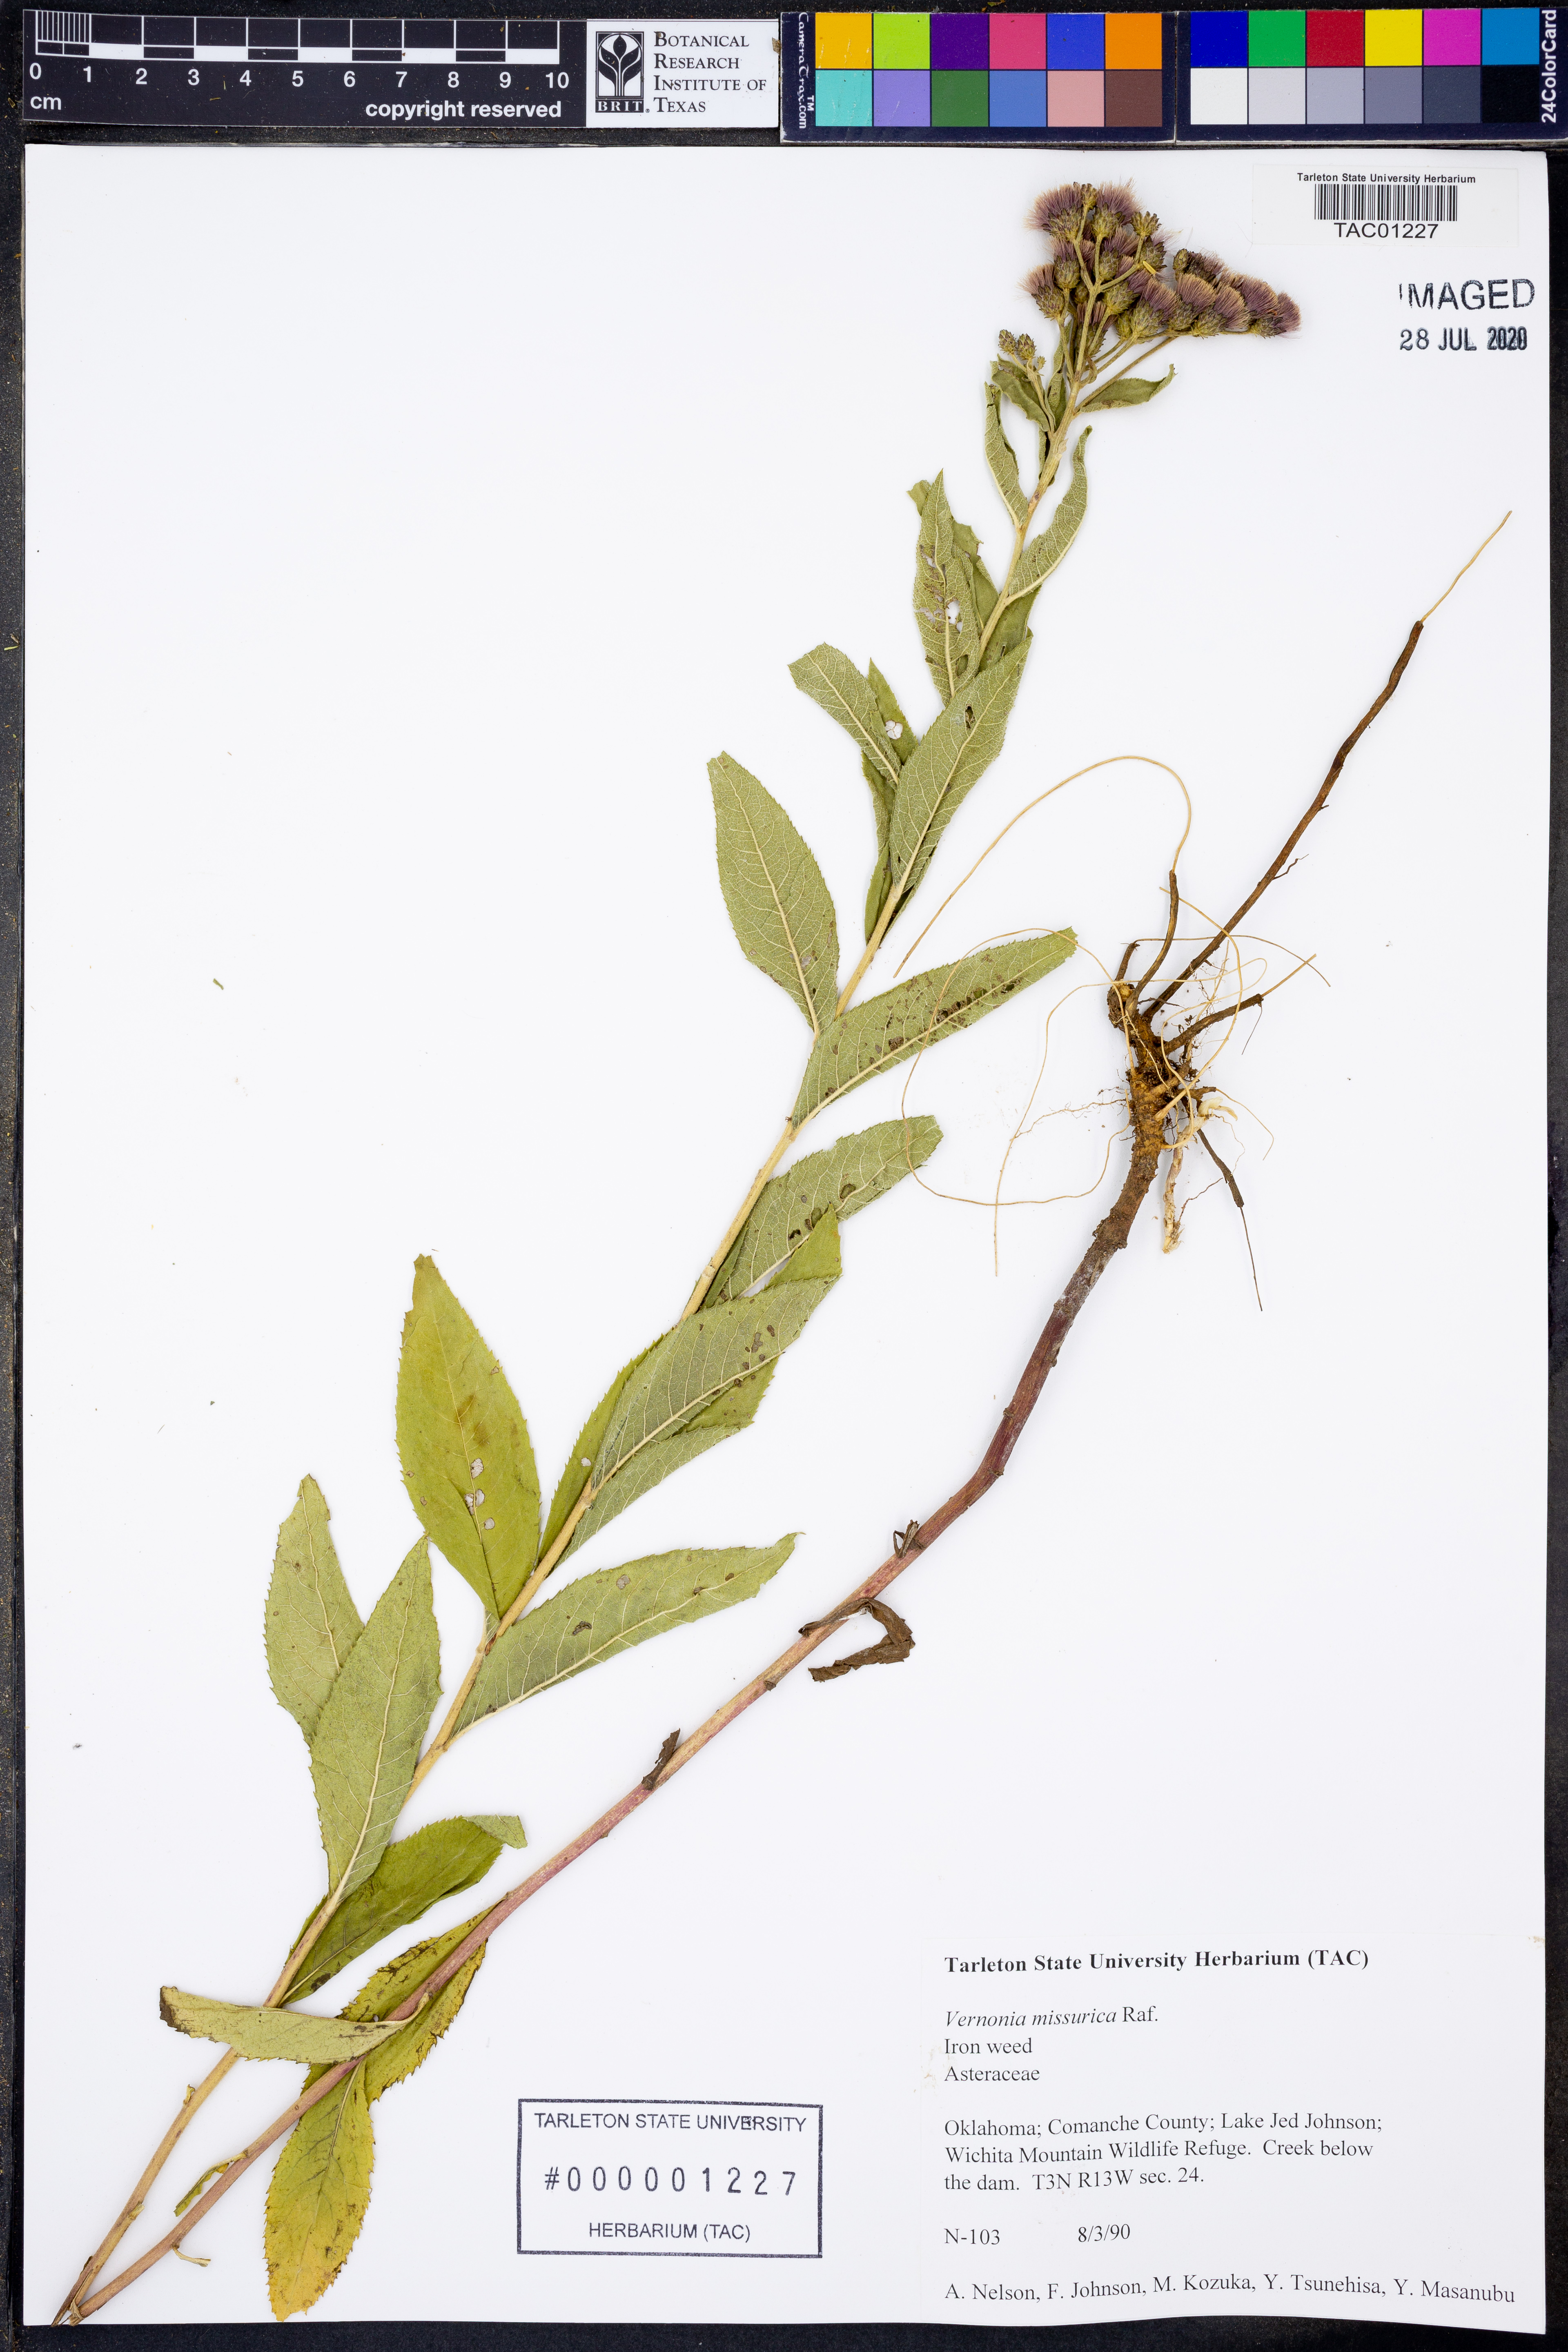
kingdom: Plantae
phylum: Tracheophyta
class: Magnoliopsida
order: Asterales
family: Asteraceae
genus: Vernonia
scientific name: Vernonia missurica
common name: Missouri ironweed
